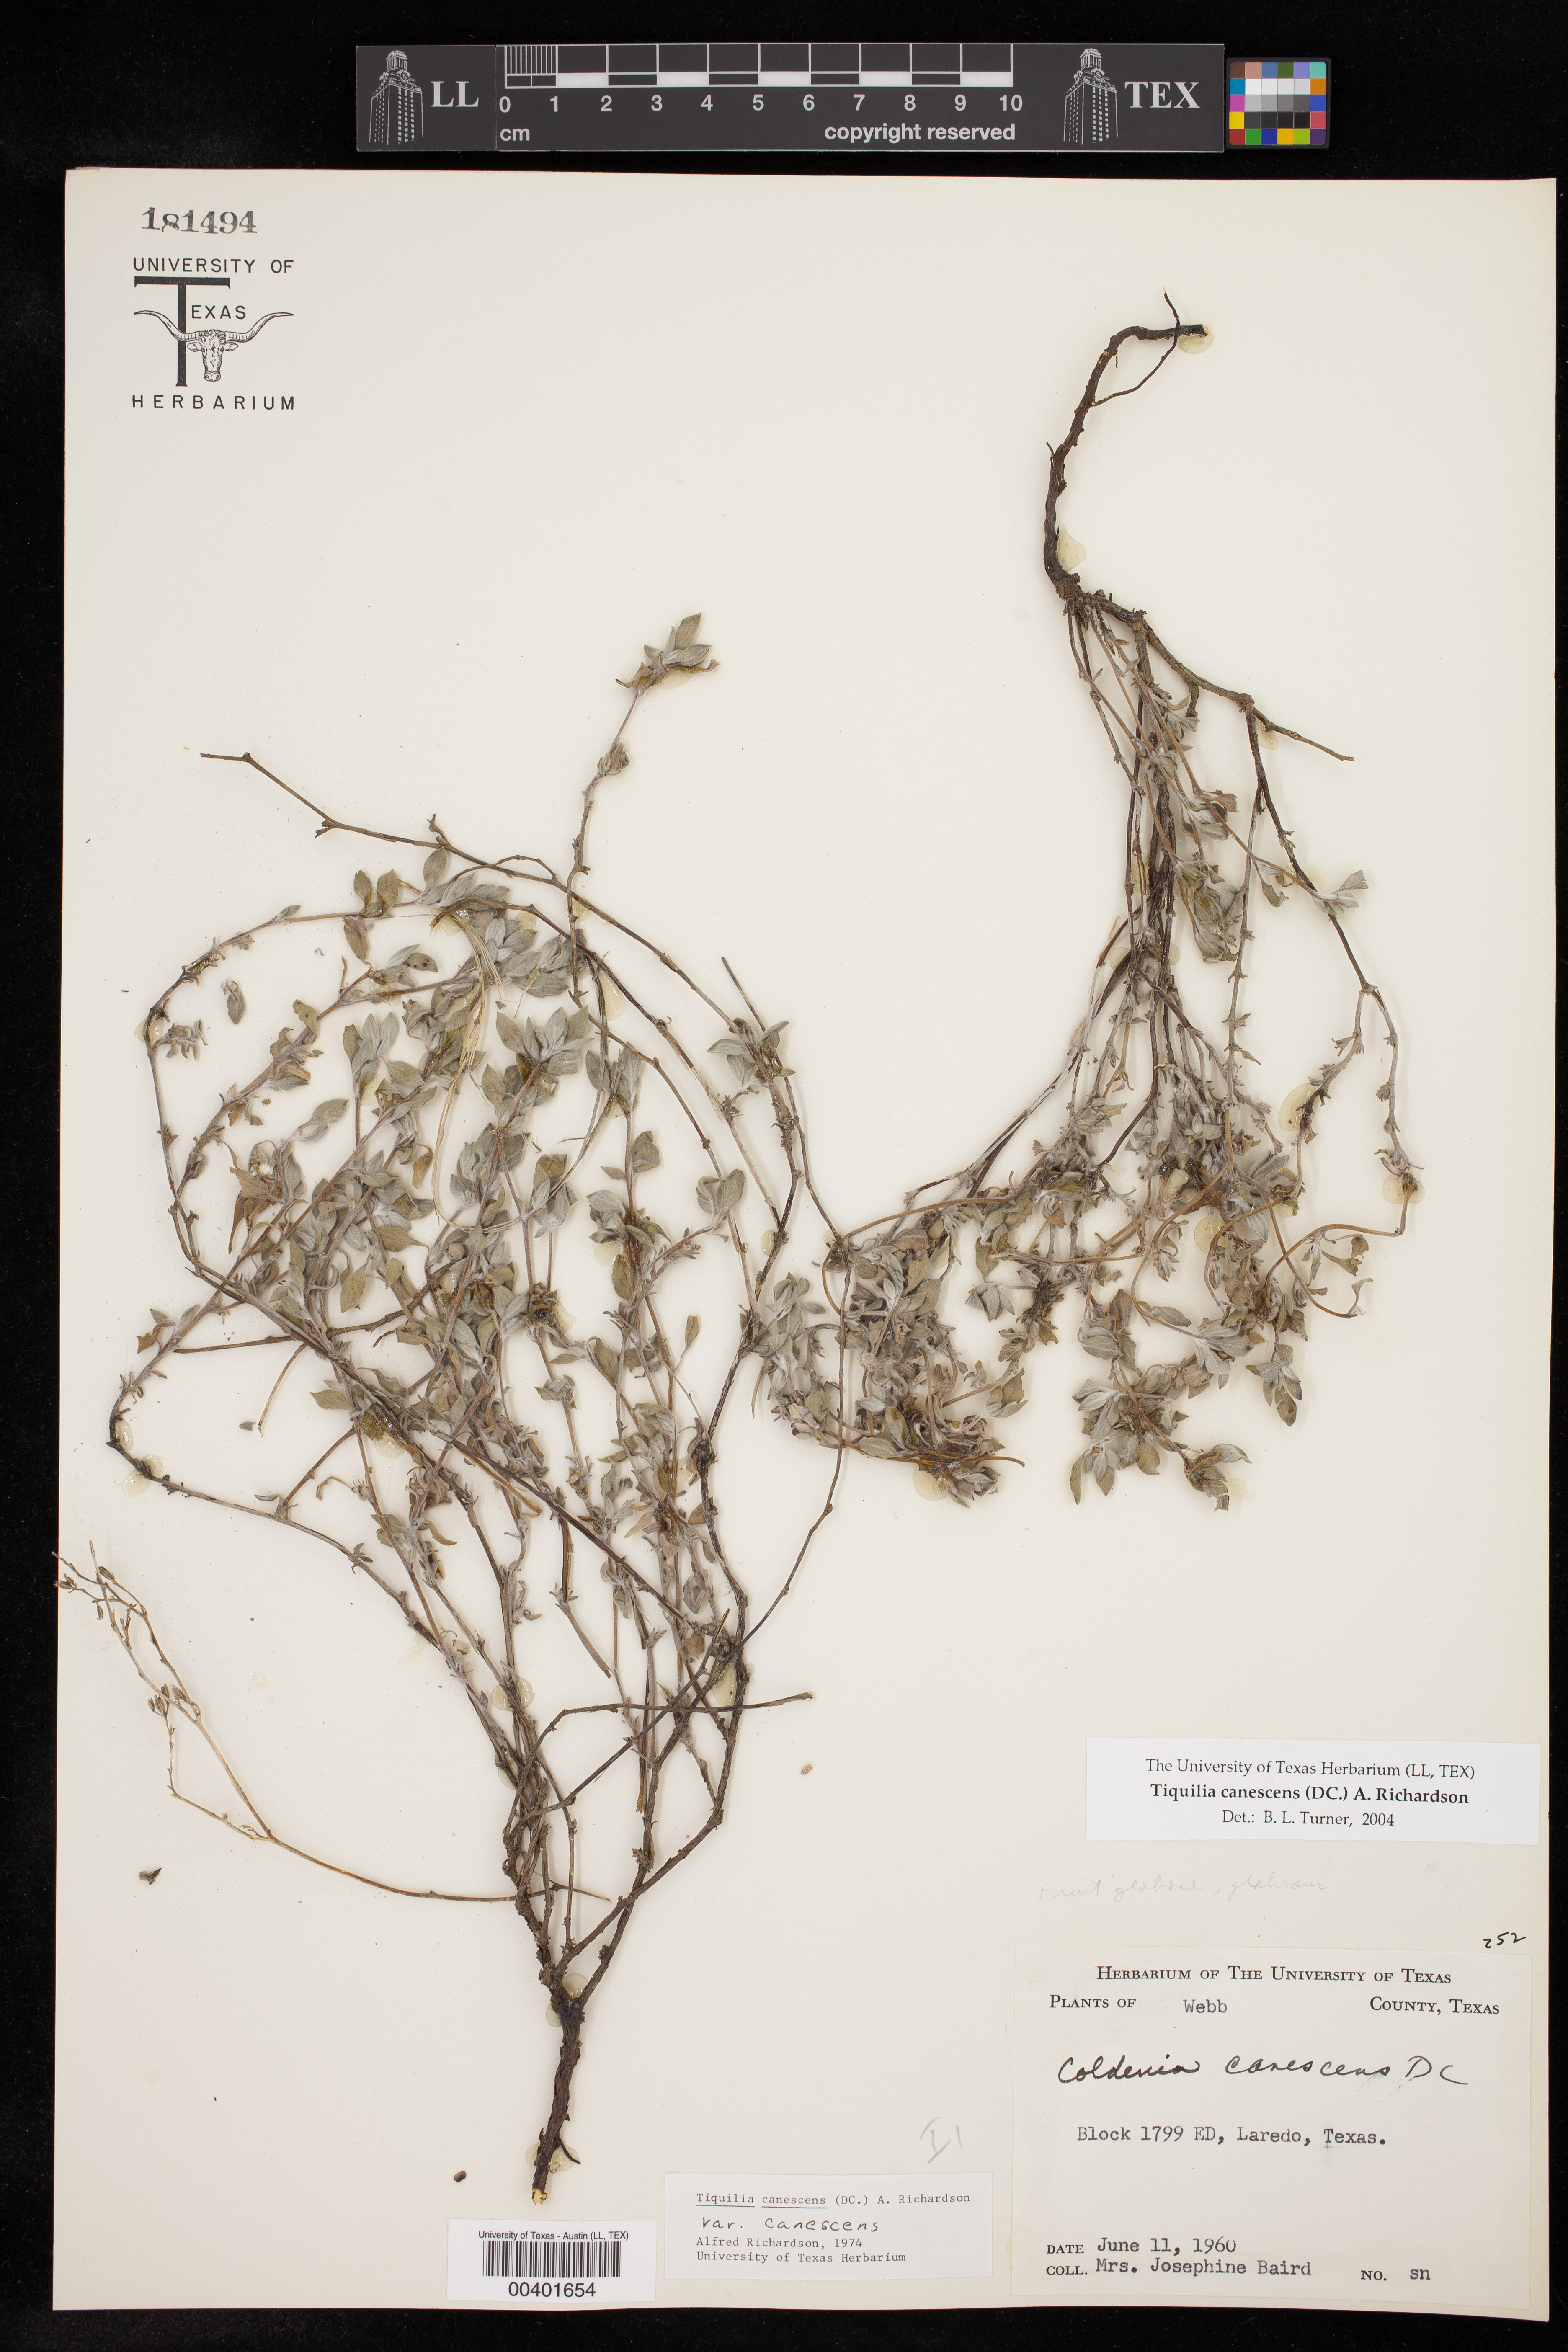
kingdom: Plantae
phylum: Tracheophyta
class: Magnoliopsida
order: Boraginales
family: Ehretiaceae
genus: Tiquilia
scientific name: Tiquilia canescens
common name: Hairy tiquilia
